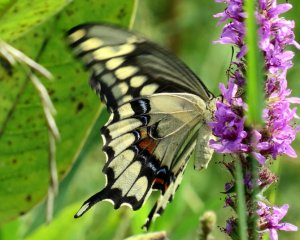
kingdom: Animalia
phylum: Arthropoda
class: Insecta
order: Lepidoptera
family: Papilionidae
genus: Papilio
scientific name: Papilio cresphontes
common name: Eastern Giant Swallowtail
